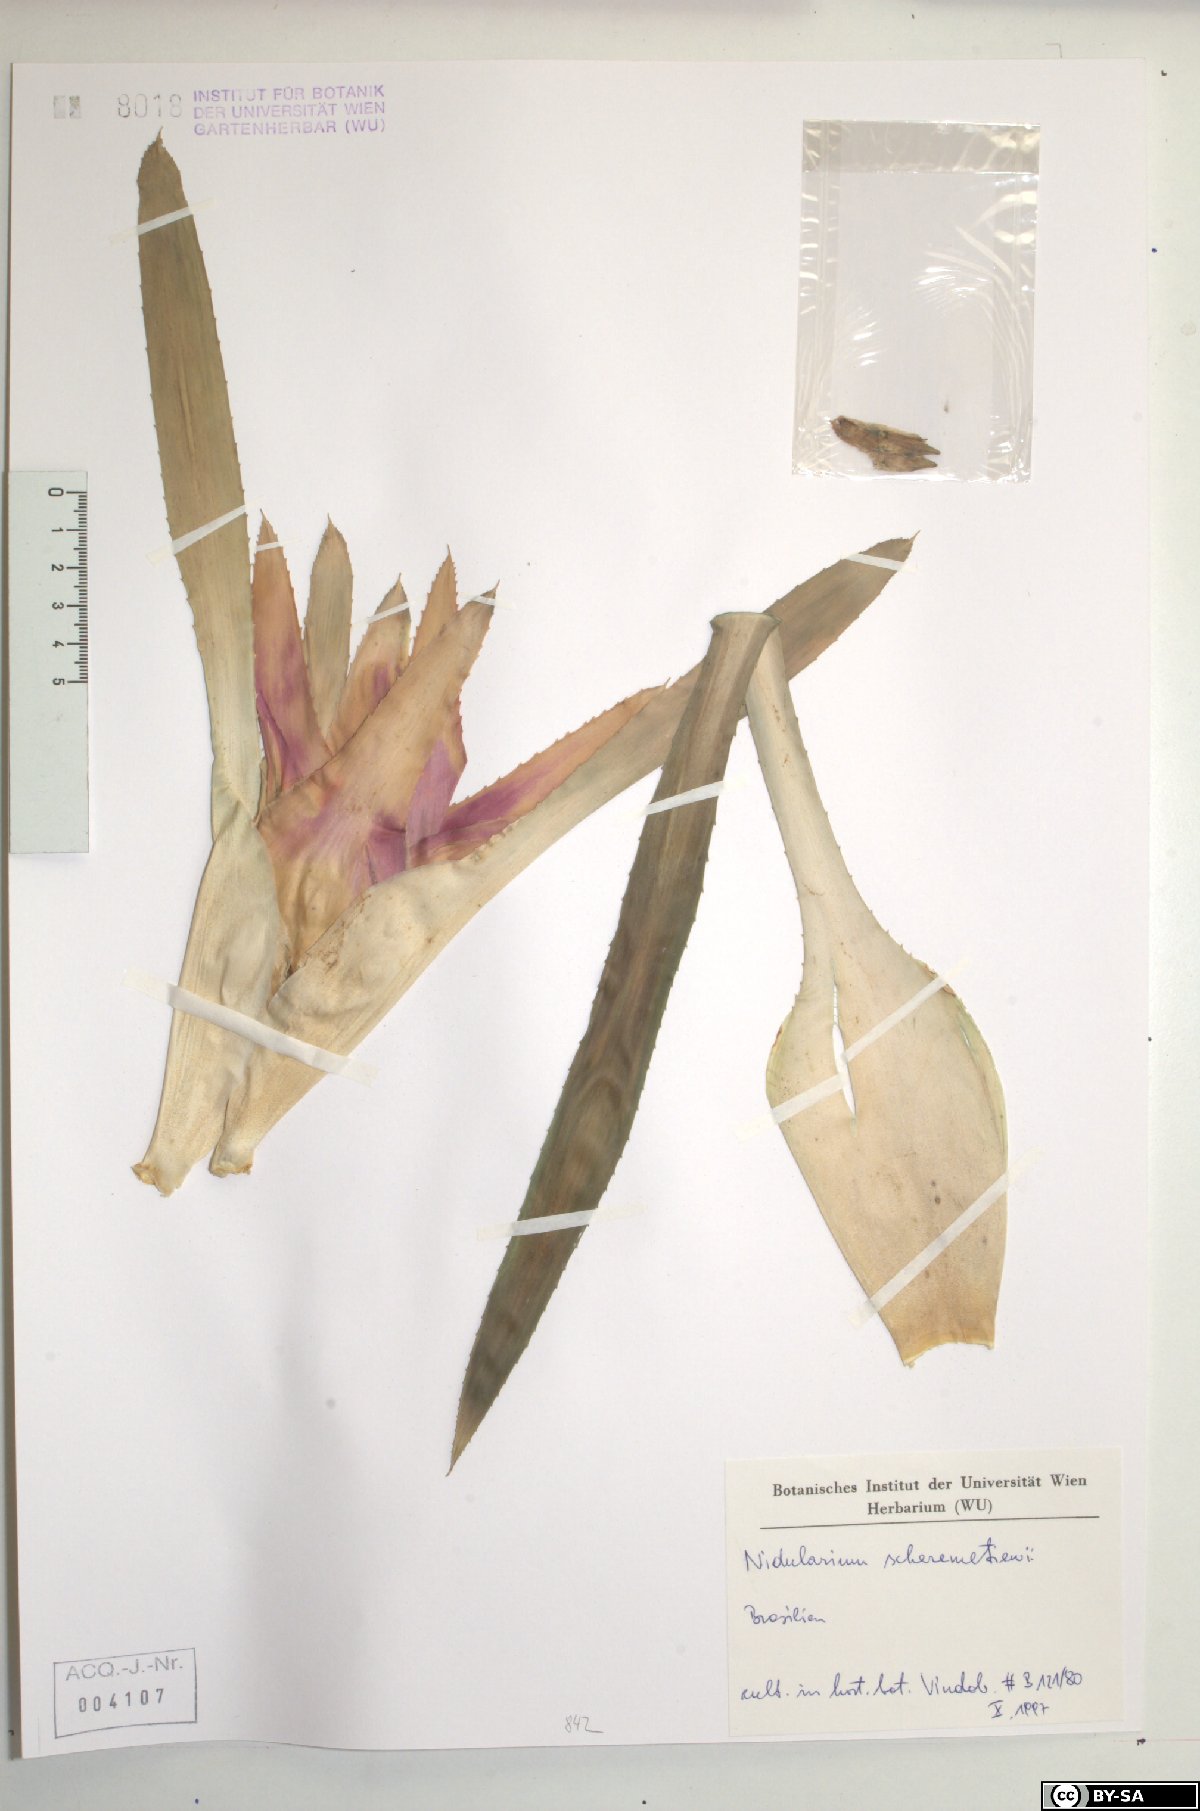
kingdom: Plantae
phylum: Tracheophyta
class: Liliopsida
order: Poales
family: Bromeliaceae
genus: Nidularium
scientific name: Nidularium scheremetiewii
